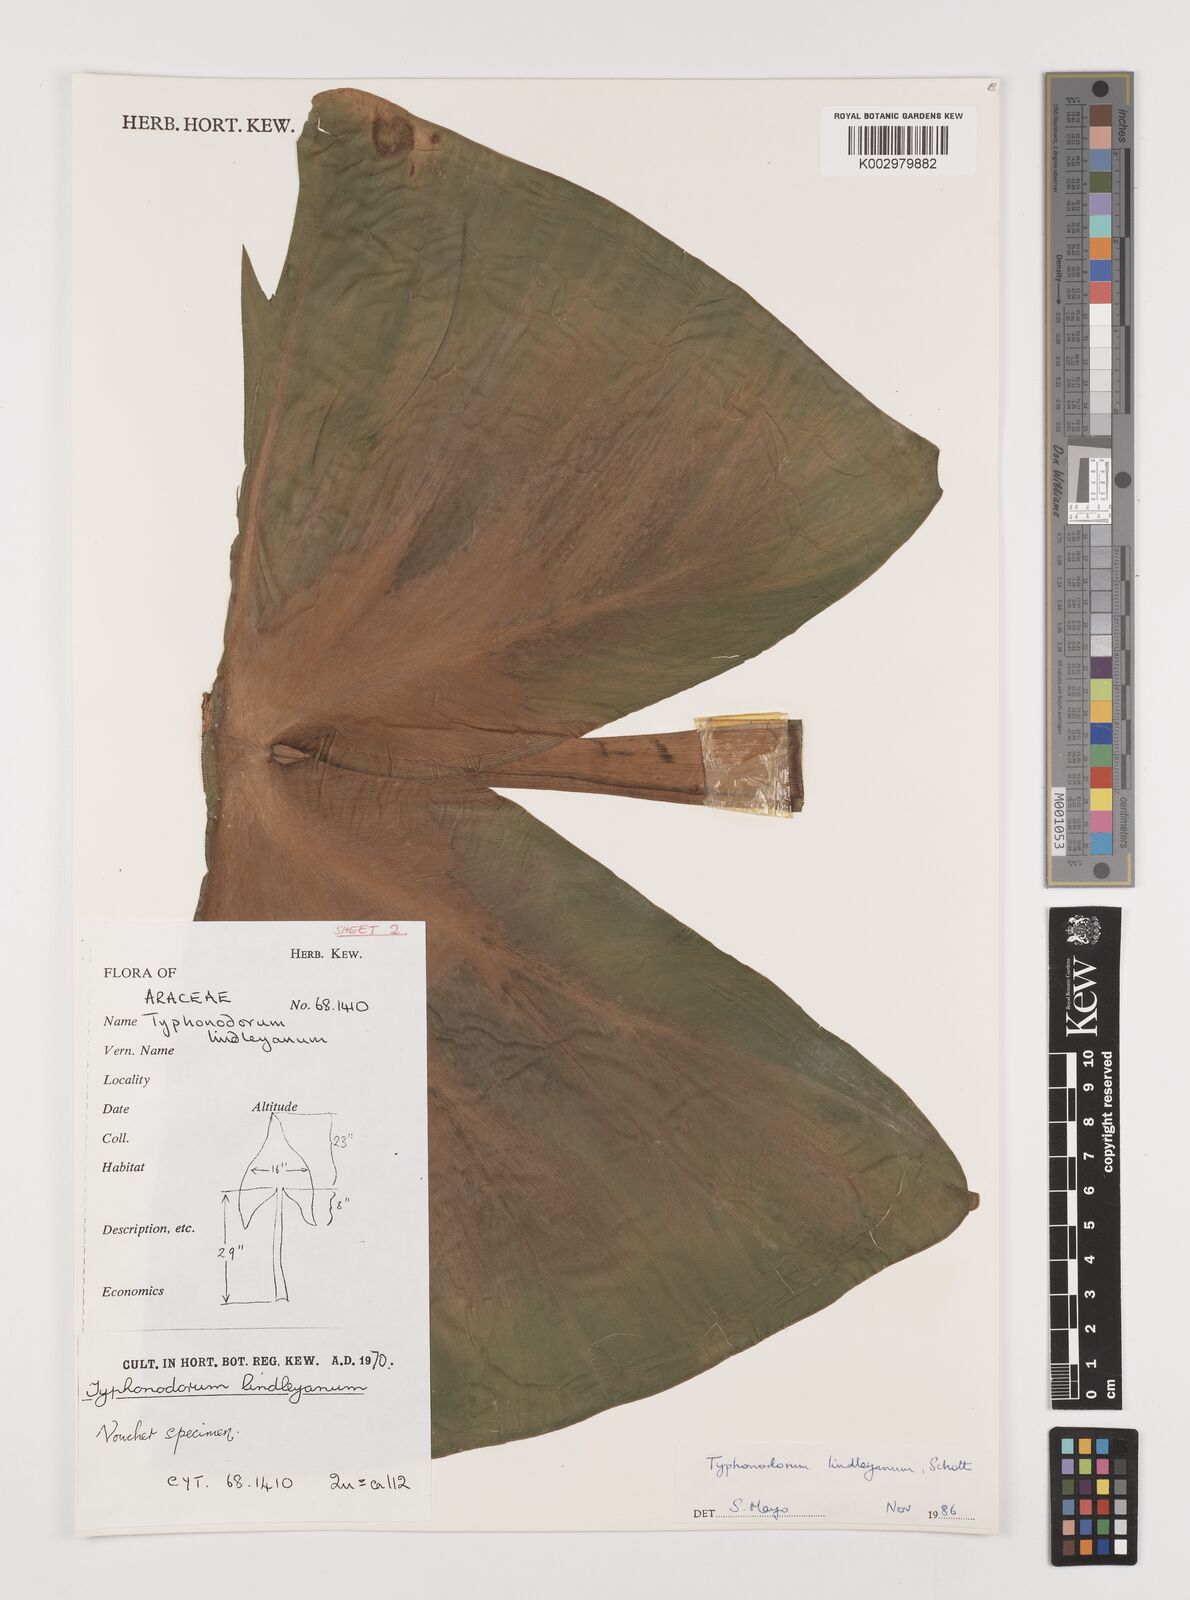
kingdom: Plantae
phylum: Tracheophyta
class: Liliopsida
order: Alismatales
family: Araceae
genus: Typhonodorum
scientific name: Typhonodorum lindleyanum
